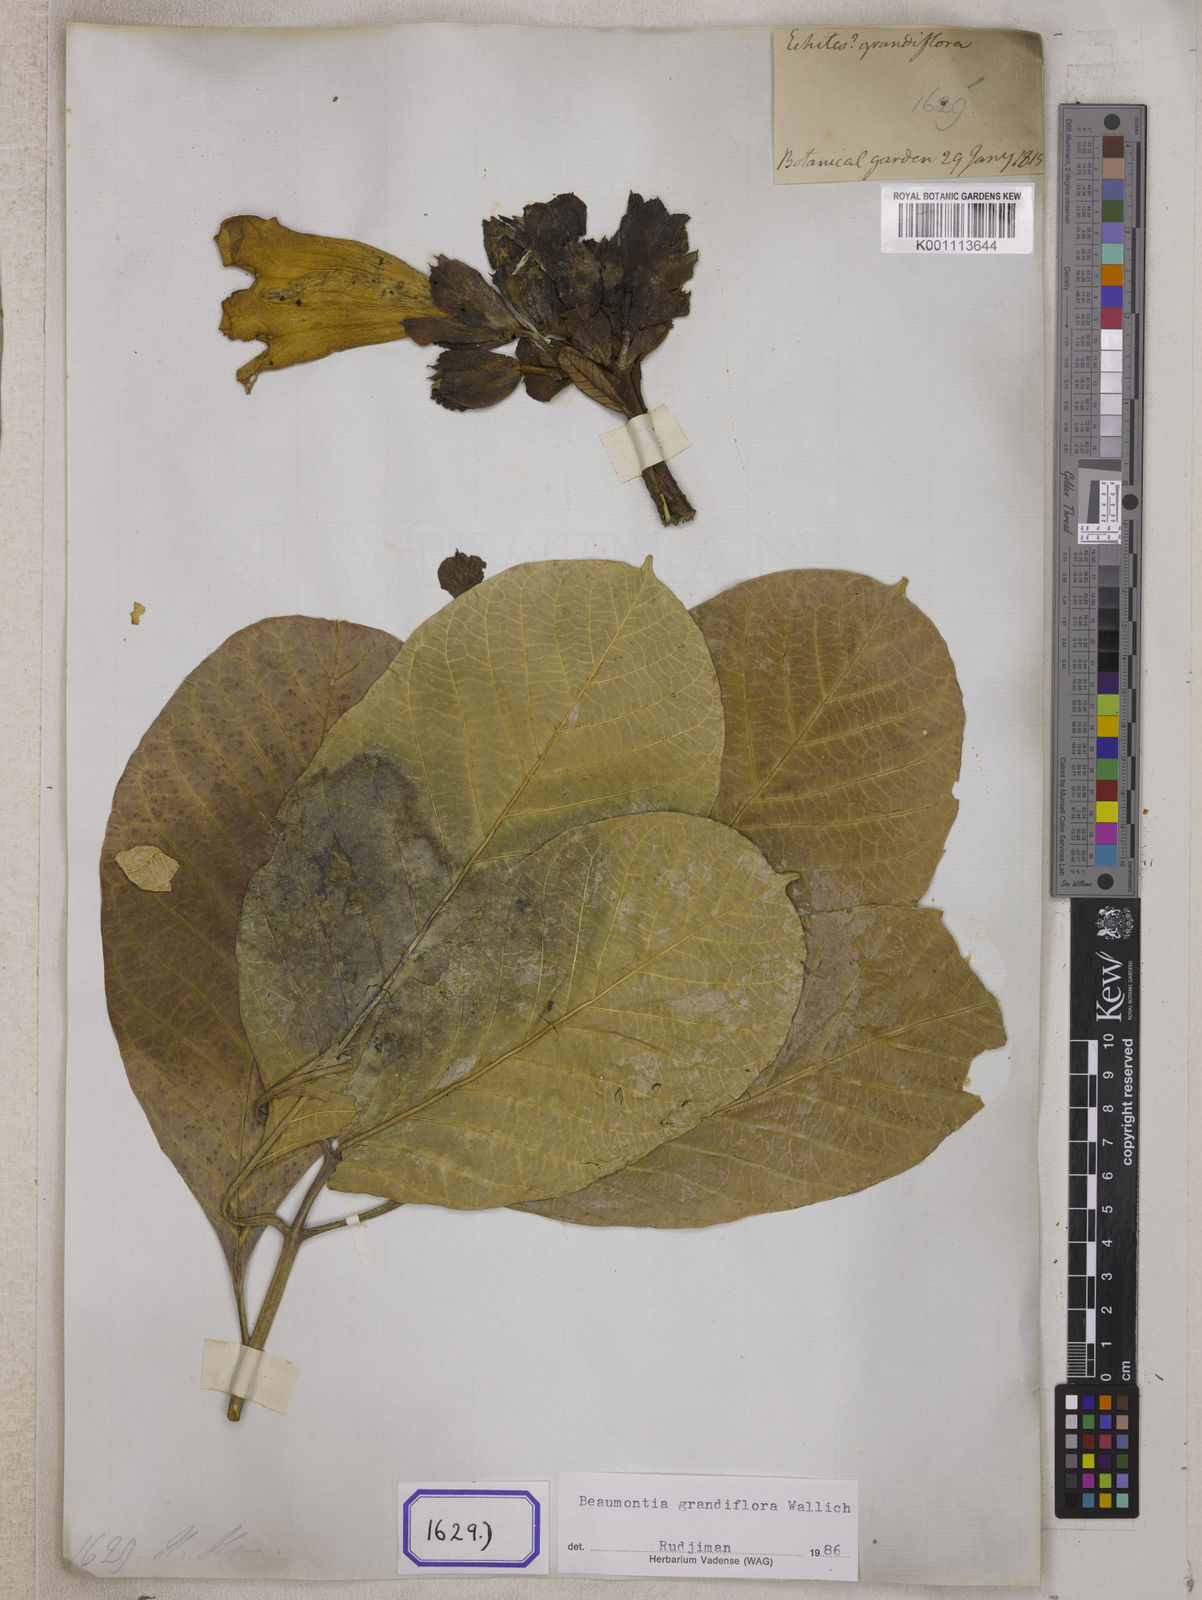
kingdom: Plantae
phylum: Tracheophyta
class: Magnoliopsida
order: Gentianales
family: Apocynaceae
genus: Beaumontia
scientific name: Beaumontia grandiflora
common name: Easter-lily-vine
